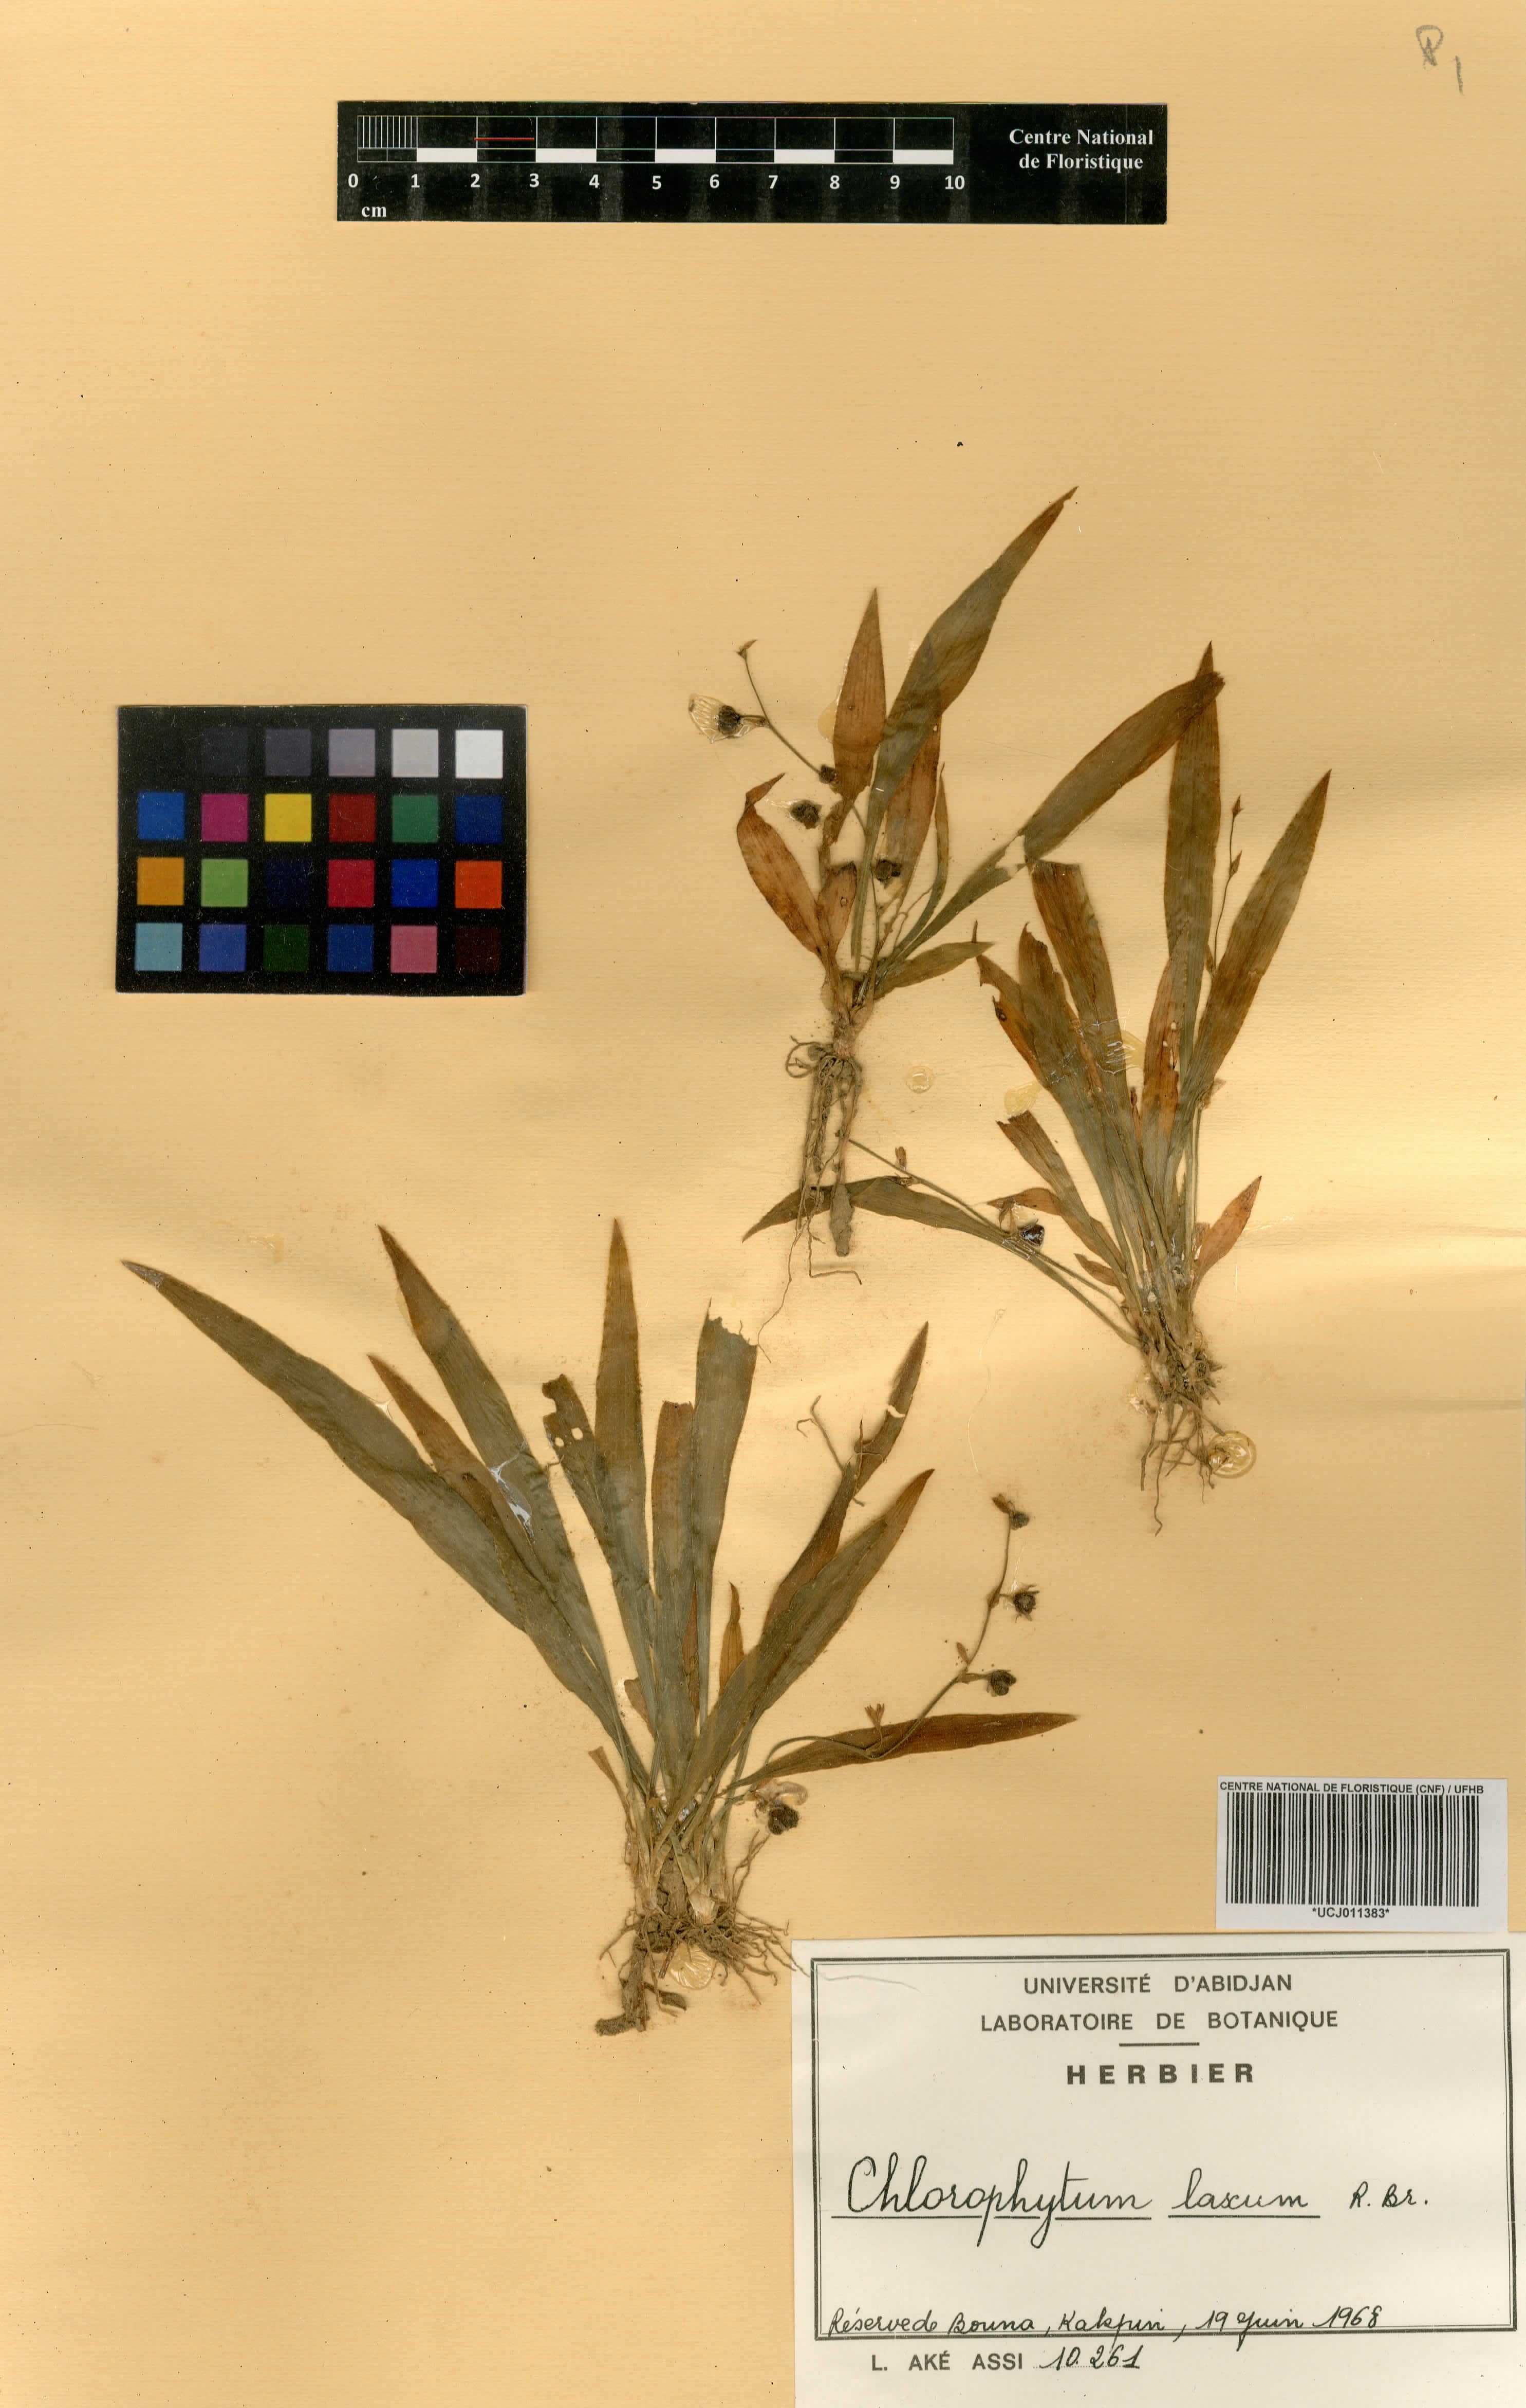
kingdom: Plantae
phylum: Tracheophyta
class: Liliopsida
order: Asparagales
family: Asparagaceae
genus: Chlorophytum
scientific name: Chlorophytum laxum
